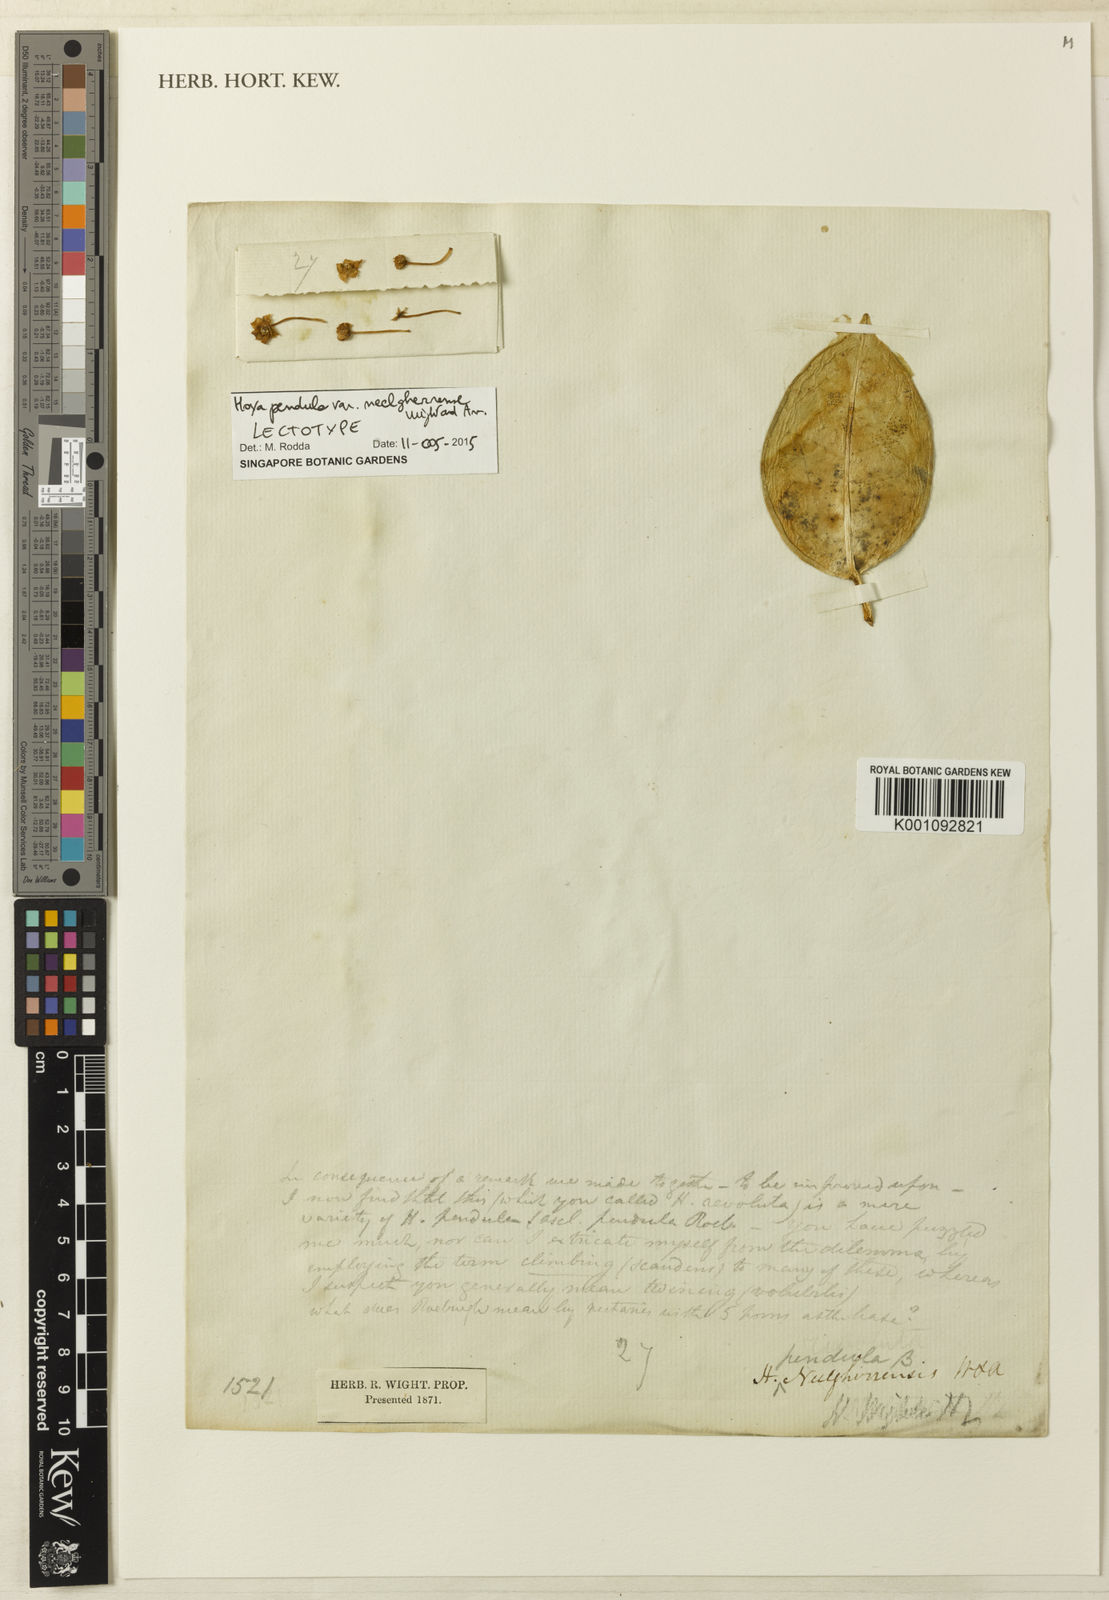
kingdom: Plantae
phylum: Tracheophyta
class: Magnoliopsida
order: Gentianales
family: Apocynaceae
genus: Hoya
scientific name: Hoya alexicaca
